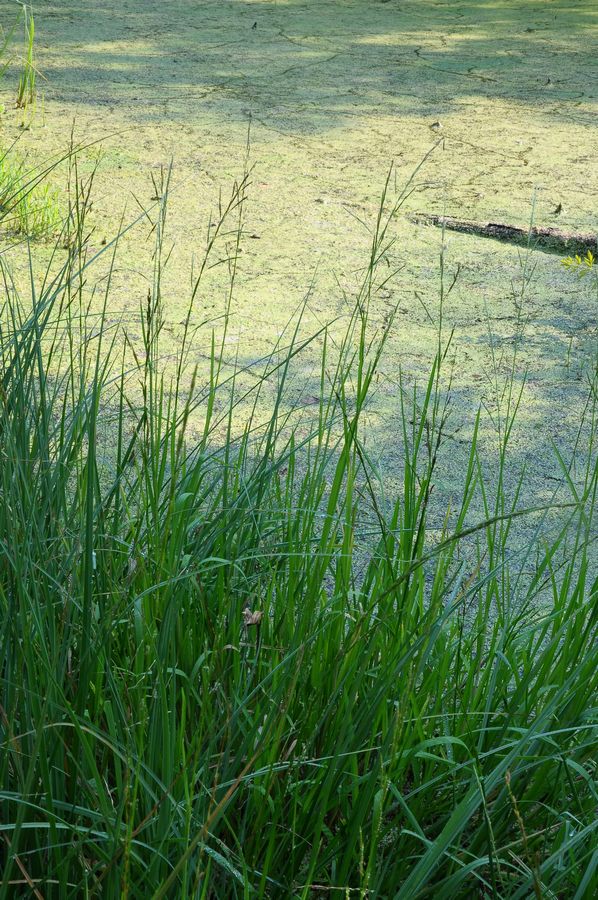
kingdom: Plantae
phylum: Tracheophyta
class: Liliopsida
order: Poales
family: Poaceae
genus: Glyceria
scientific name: Glyceria fluitans
